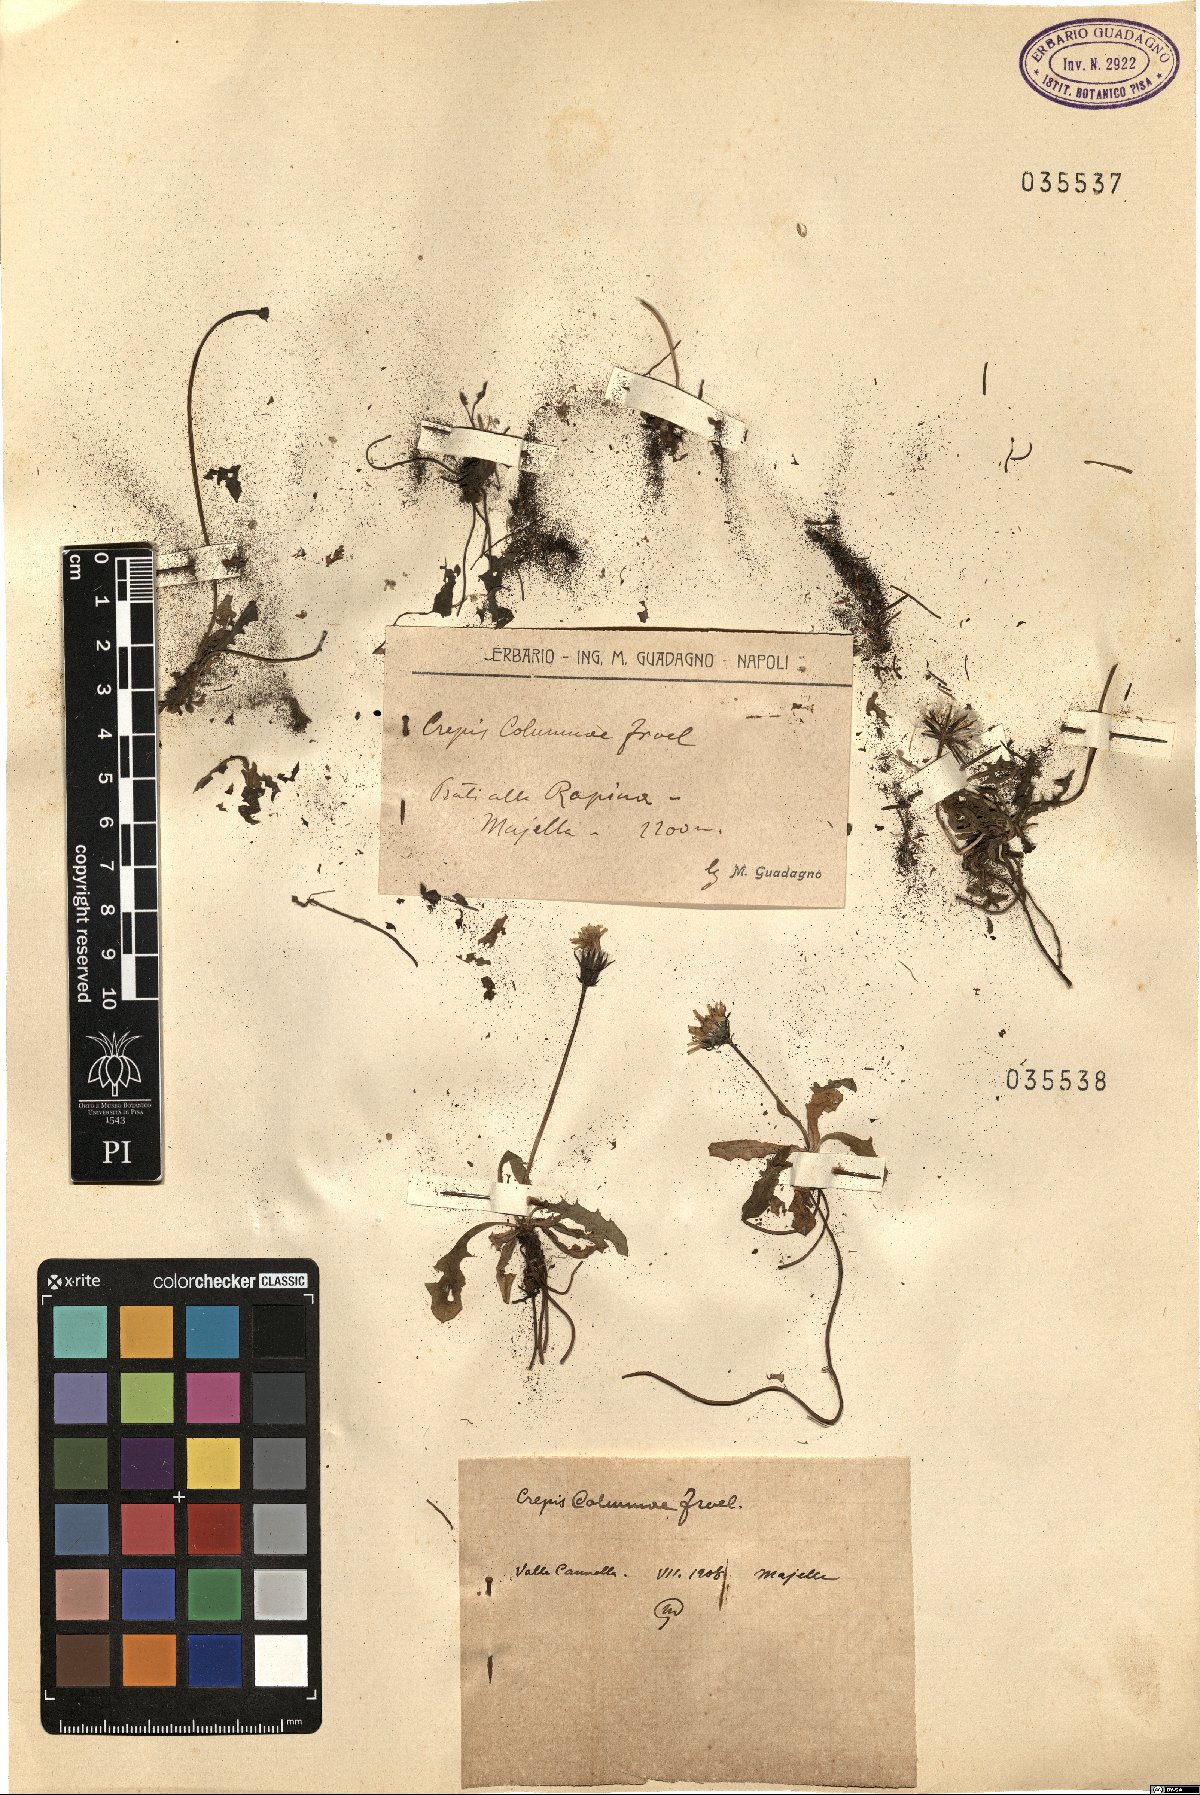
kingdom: Plantae
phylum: Tracheophyta
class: Magnoliopsida
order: Asterales
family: Asteraceae
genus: Crepis
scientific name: Crepis aurea
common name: Golden hawk's-beard
